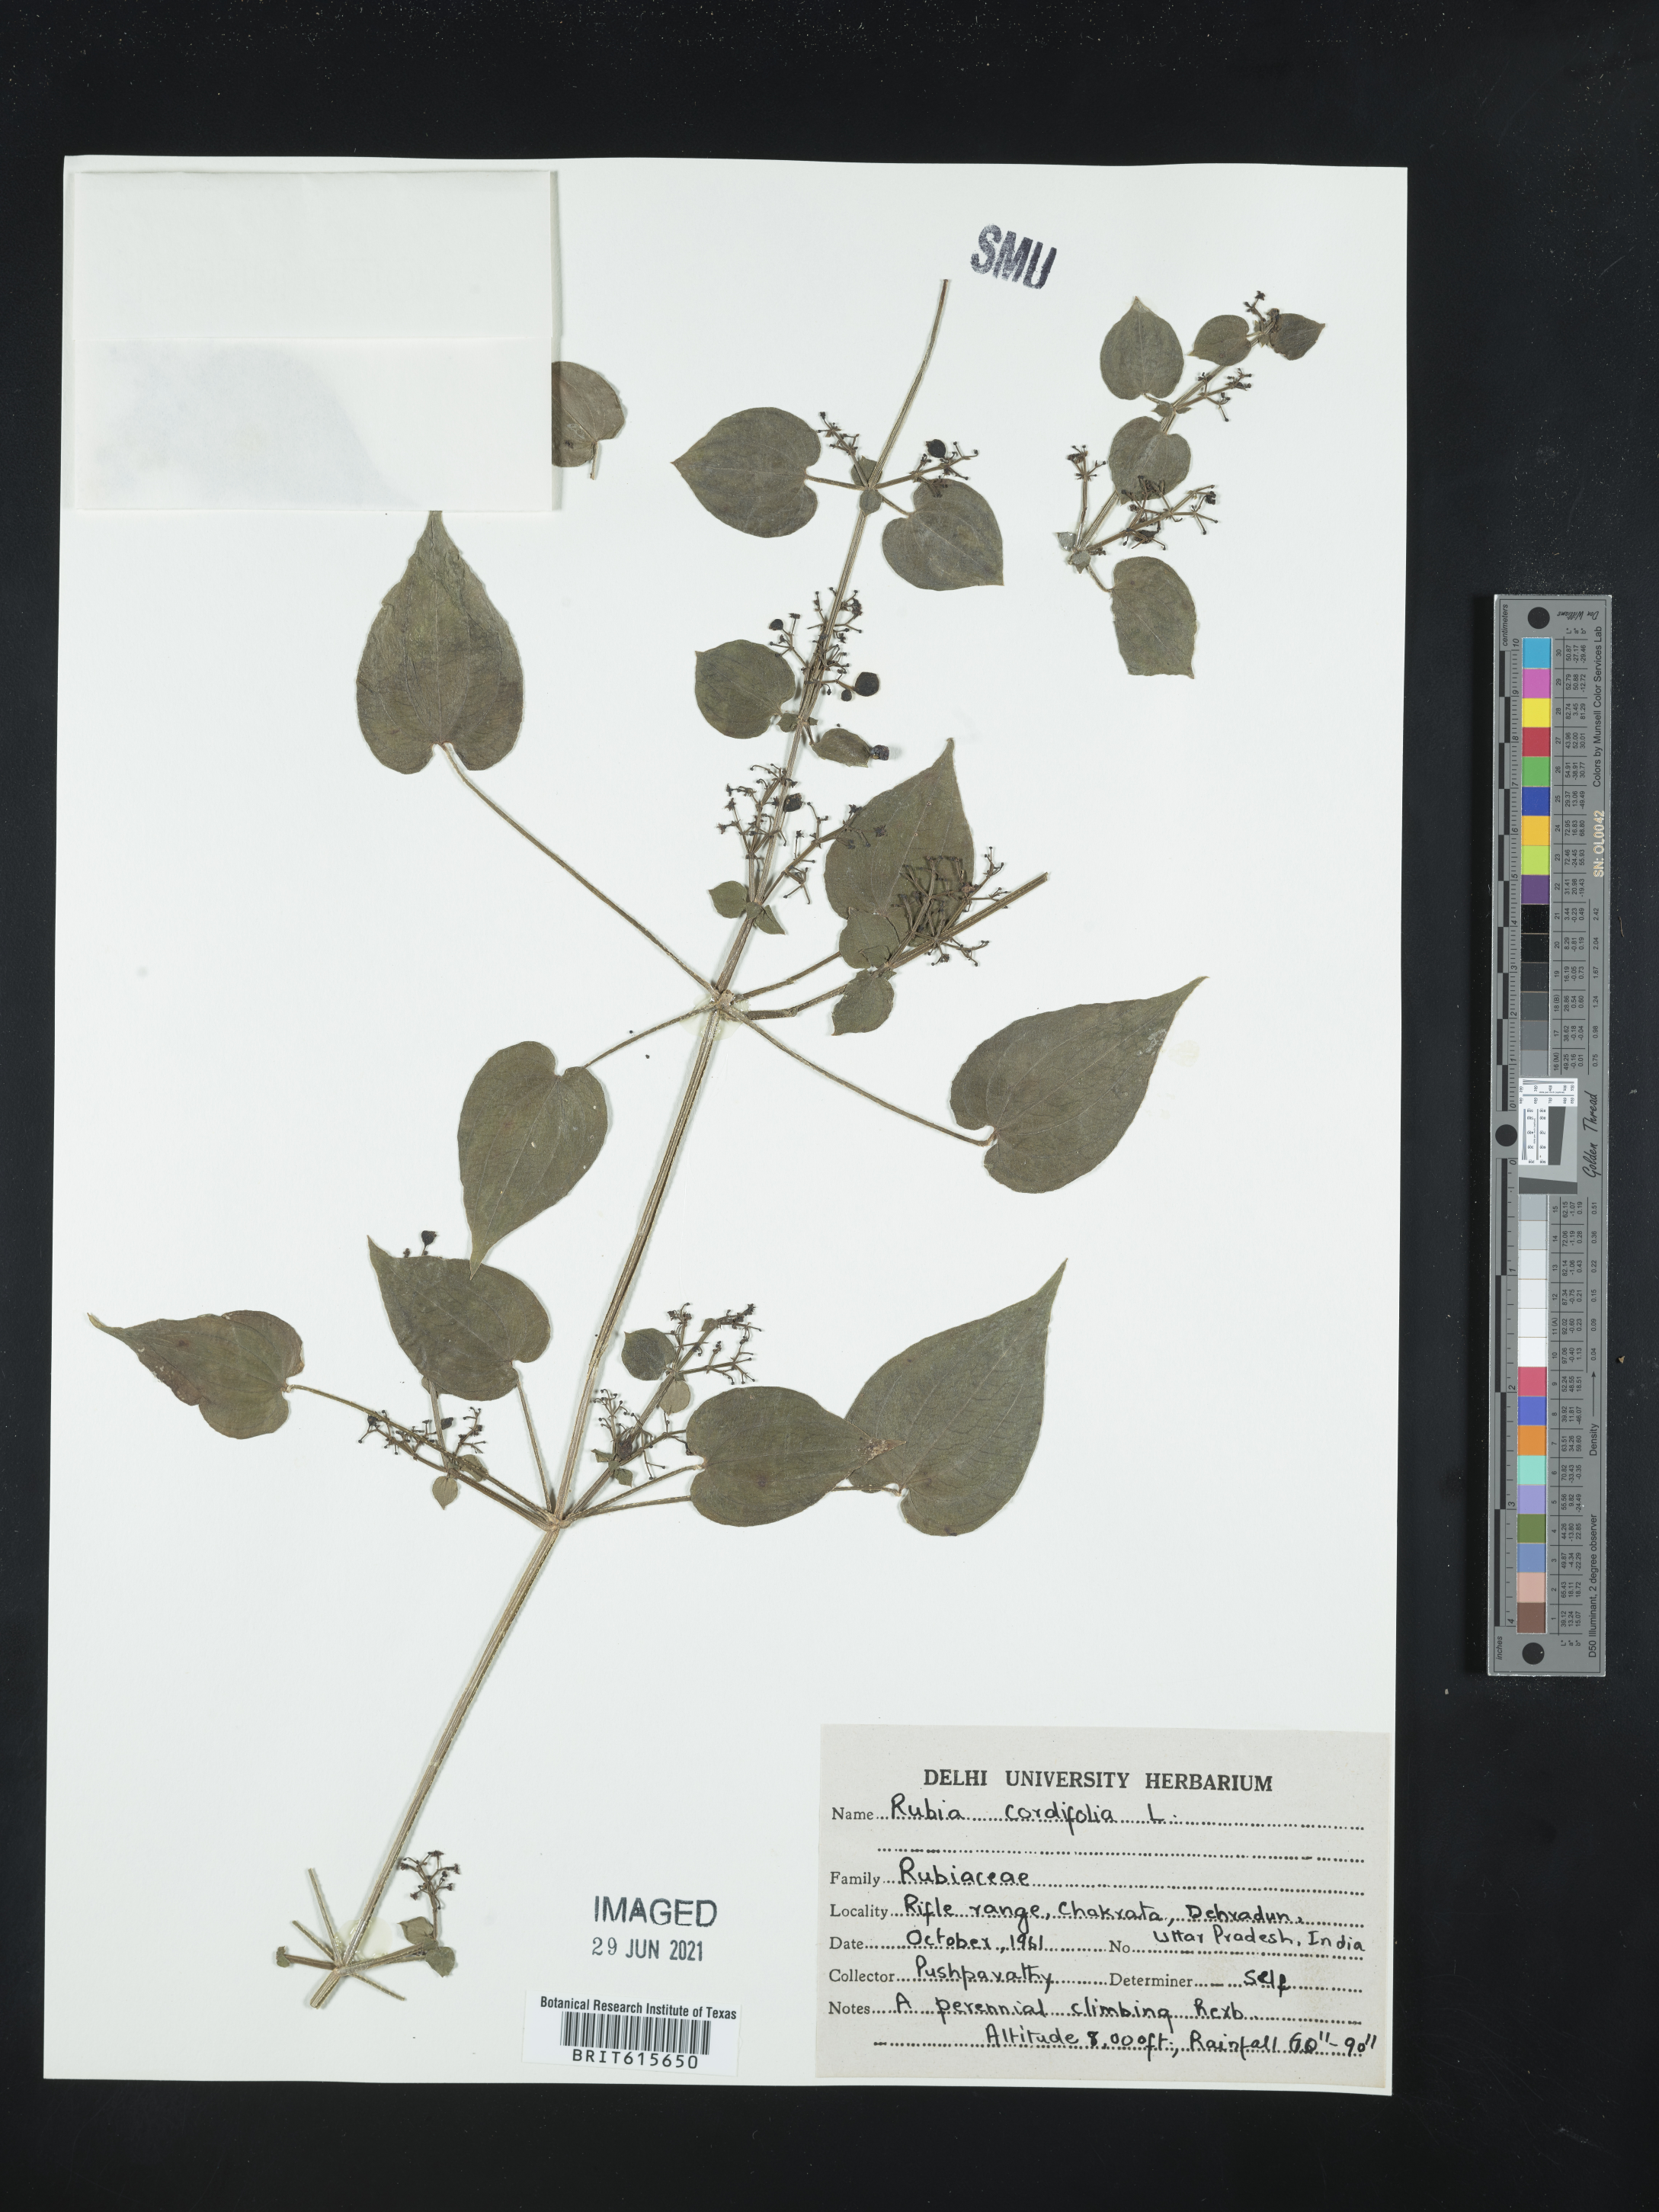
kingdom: Plantae
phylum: Tracheophyta
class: Magnoliopsida
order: Gentianales
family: Rubiaceae
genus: Rubia
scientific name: Rubia cordifolia
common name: Indian madder
